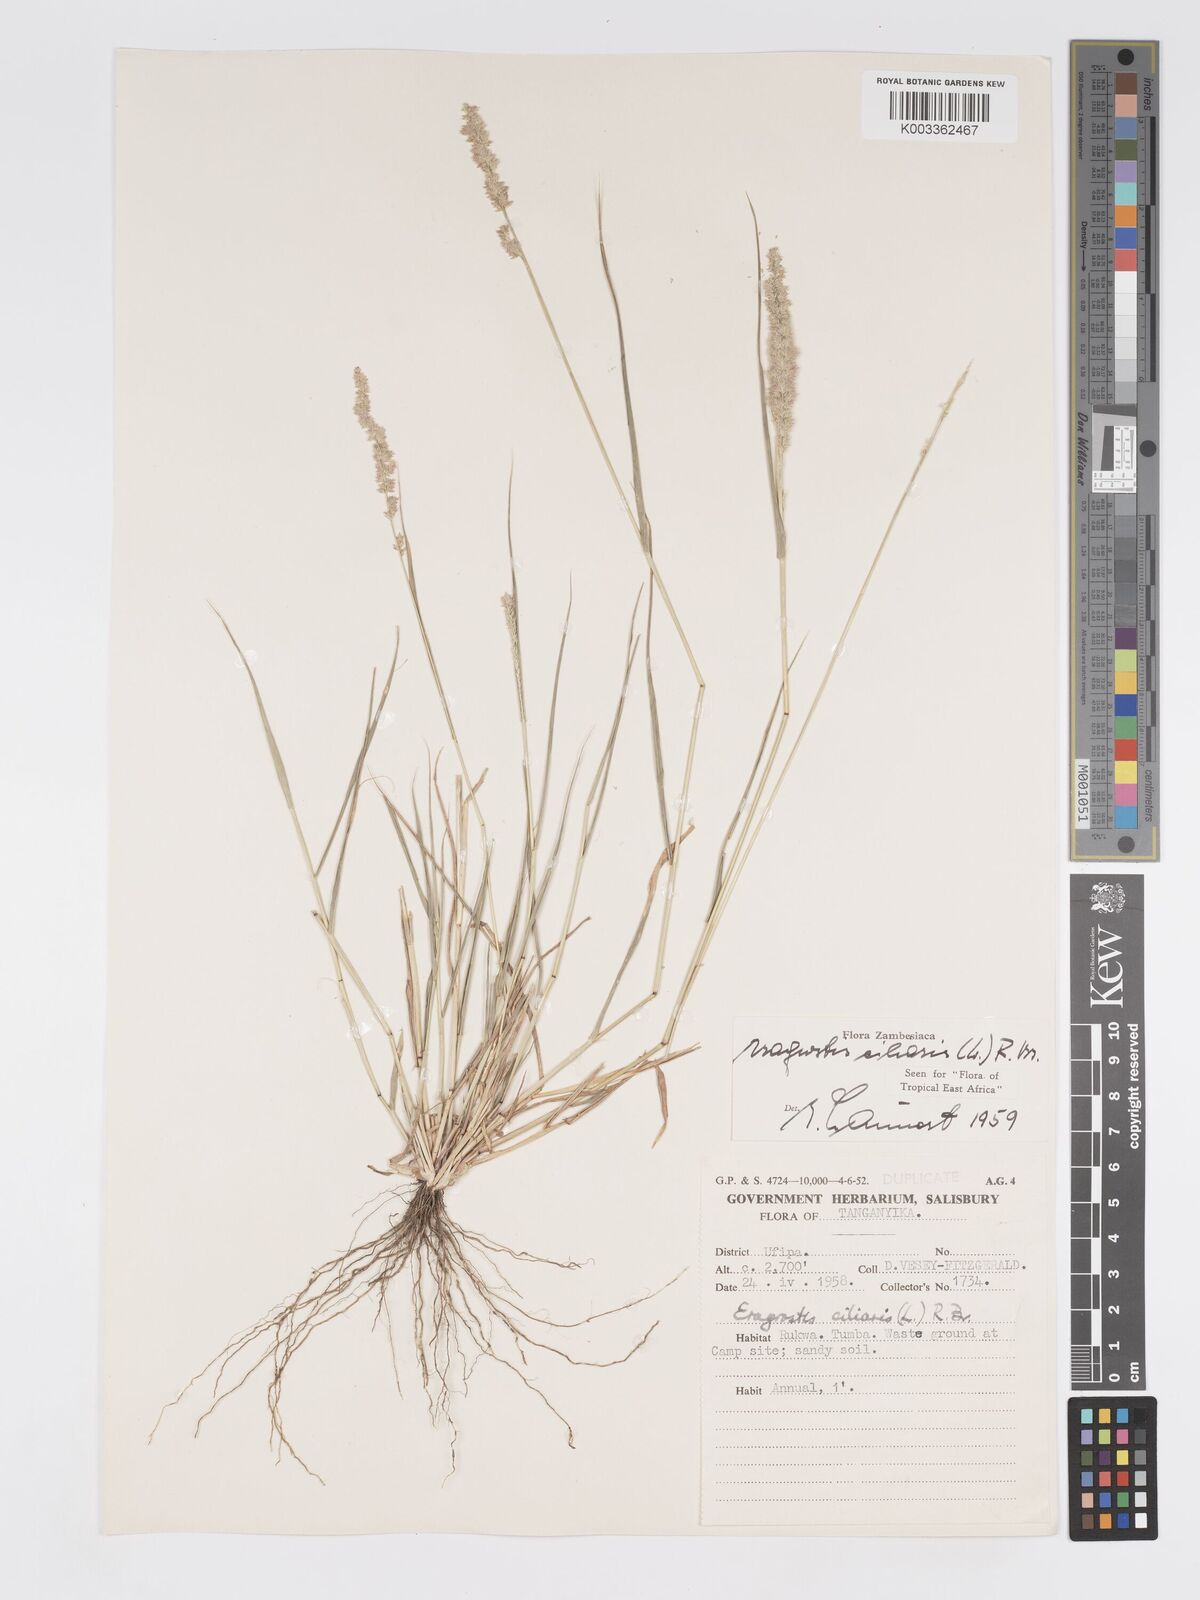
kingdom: Plantae
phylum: Tracheophyta
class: Liliopsida
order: Poales
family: Poaceae
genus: Eragrostis
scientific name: Eragrostis ciliaris
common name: Gophertail lovegrass
